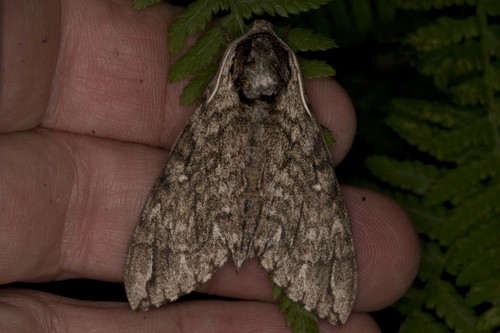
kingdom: Animalia
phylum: Arthropoda
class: Insecta
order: Lepidoptera
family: Sphingidae
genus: Ceratomia
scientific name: Ceratomia undulosa
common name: Waved sphinx
